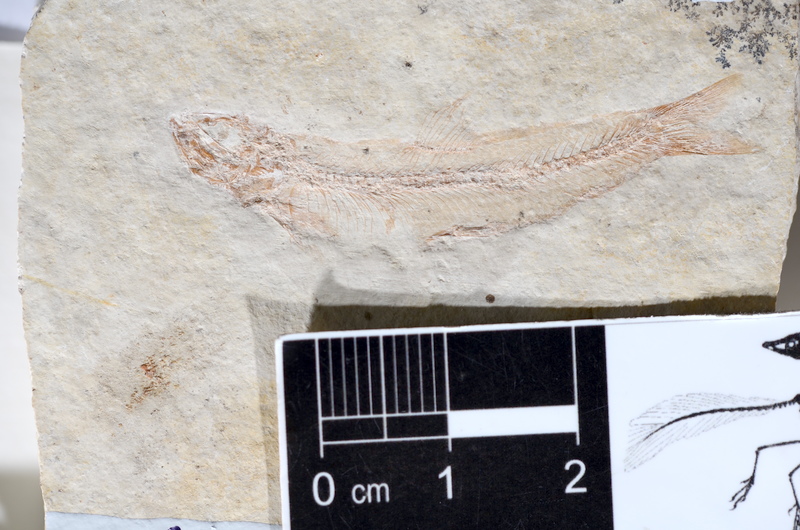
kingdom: Animalia
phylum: Chordata
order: Salmoniformes
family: Orthogonikleithridae
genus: Leptolepides
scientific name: Leptolepides sprattiformis
